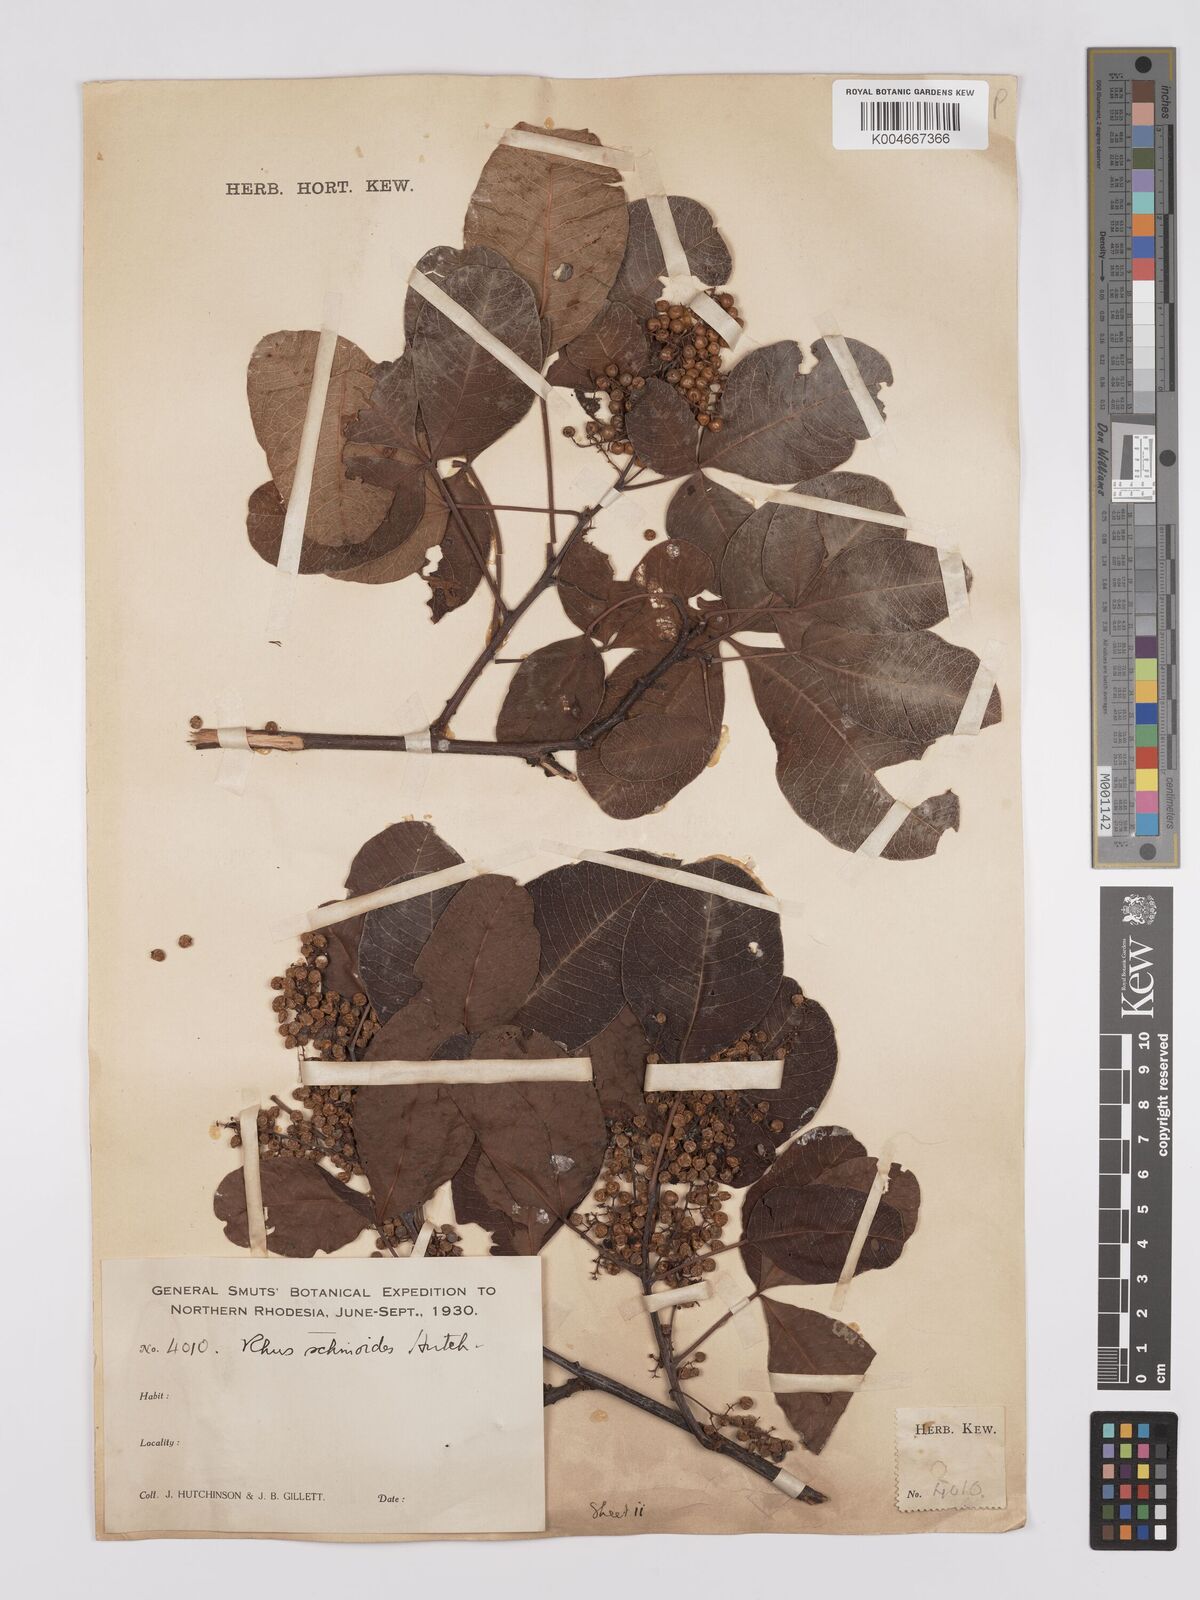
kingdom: Plantae
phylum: Tracheophyta
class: Magnoliopsida
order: Sapindales
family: Anacardiaceae
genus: Searsia
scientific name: Searsia longipes
